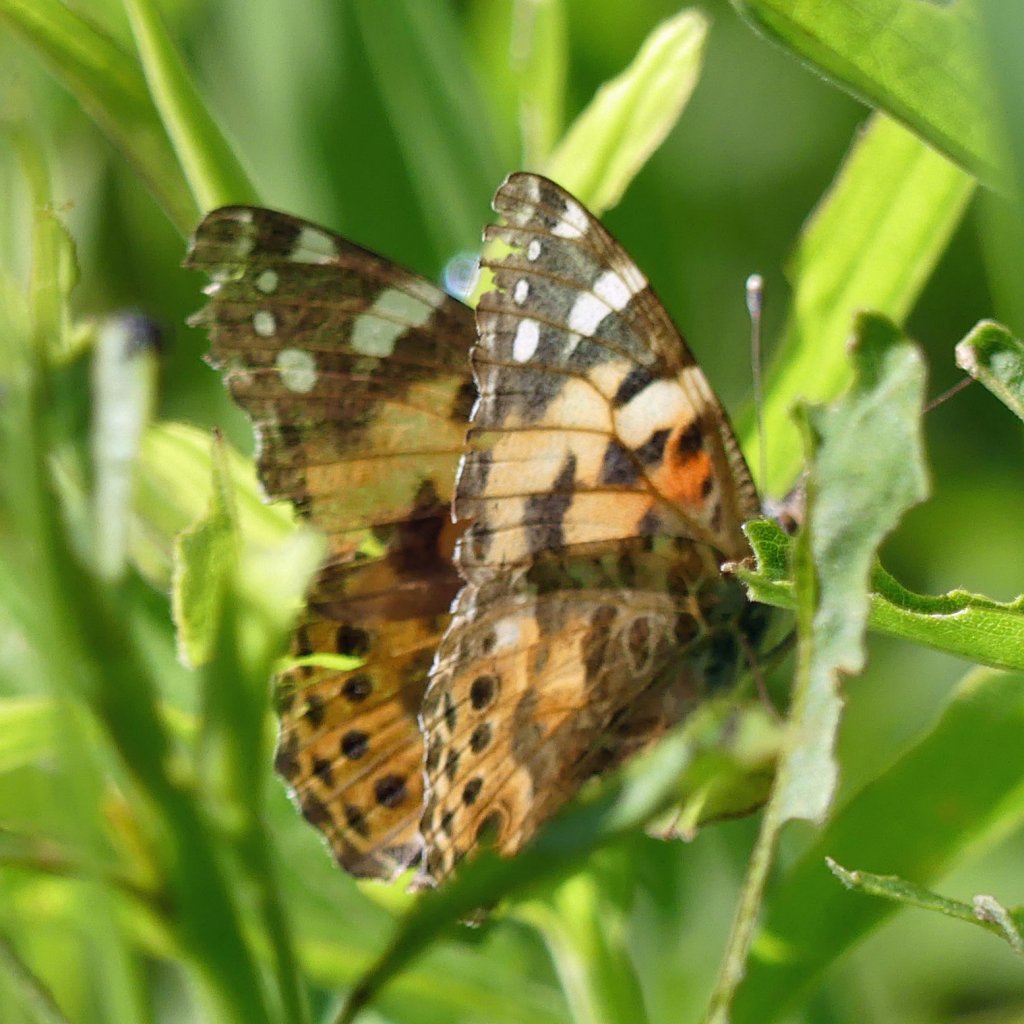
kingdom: Animalia
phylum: Arthropoda
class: Insecta
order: Lepidoptera
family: Nymphalidae
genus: Vanessa
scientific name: Vanessa cardui
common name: Painted Lady
